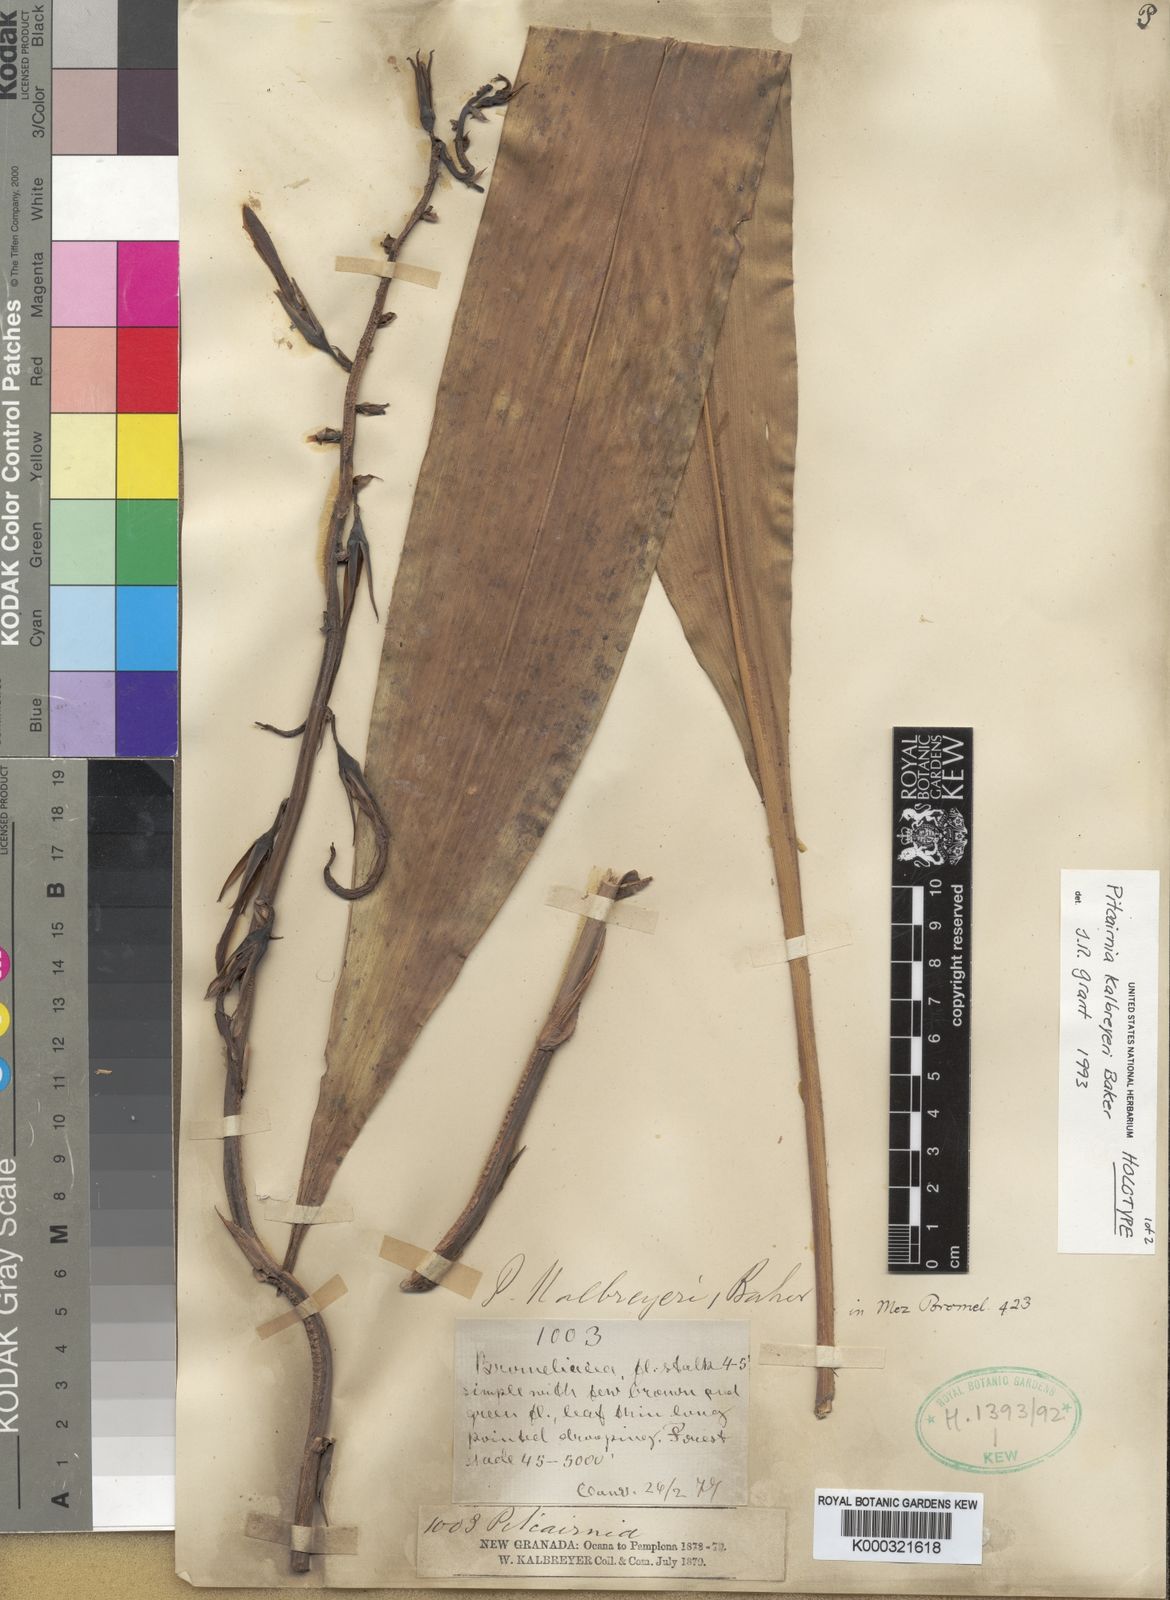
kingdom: Plantae
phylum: Tracheophyta
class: Liliopsida
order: Poales
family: Bromeliaceae
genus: Pitcairnia
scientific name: Pitcairnia kalbreyeri
